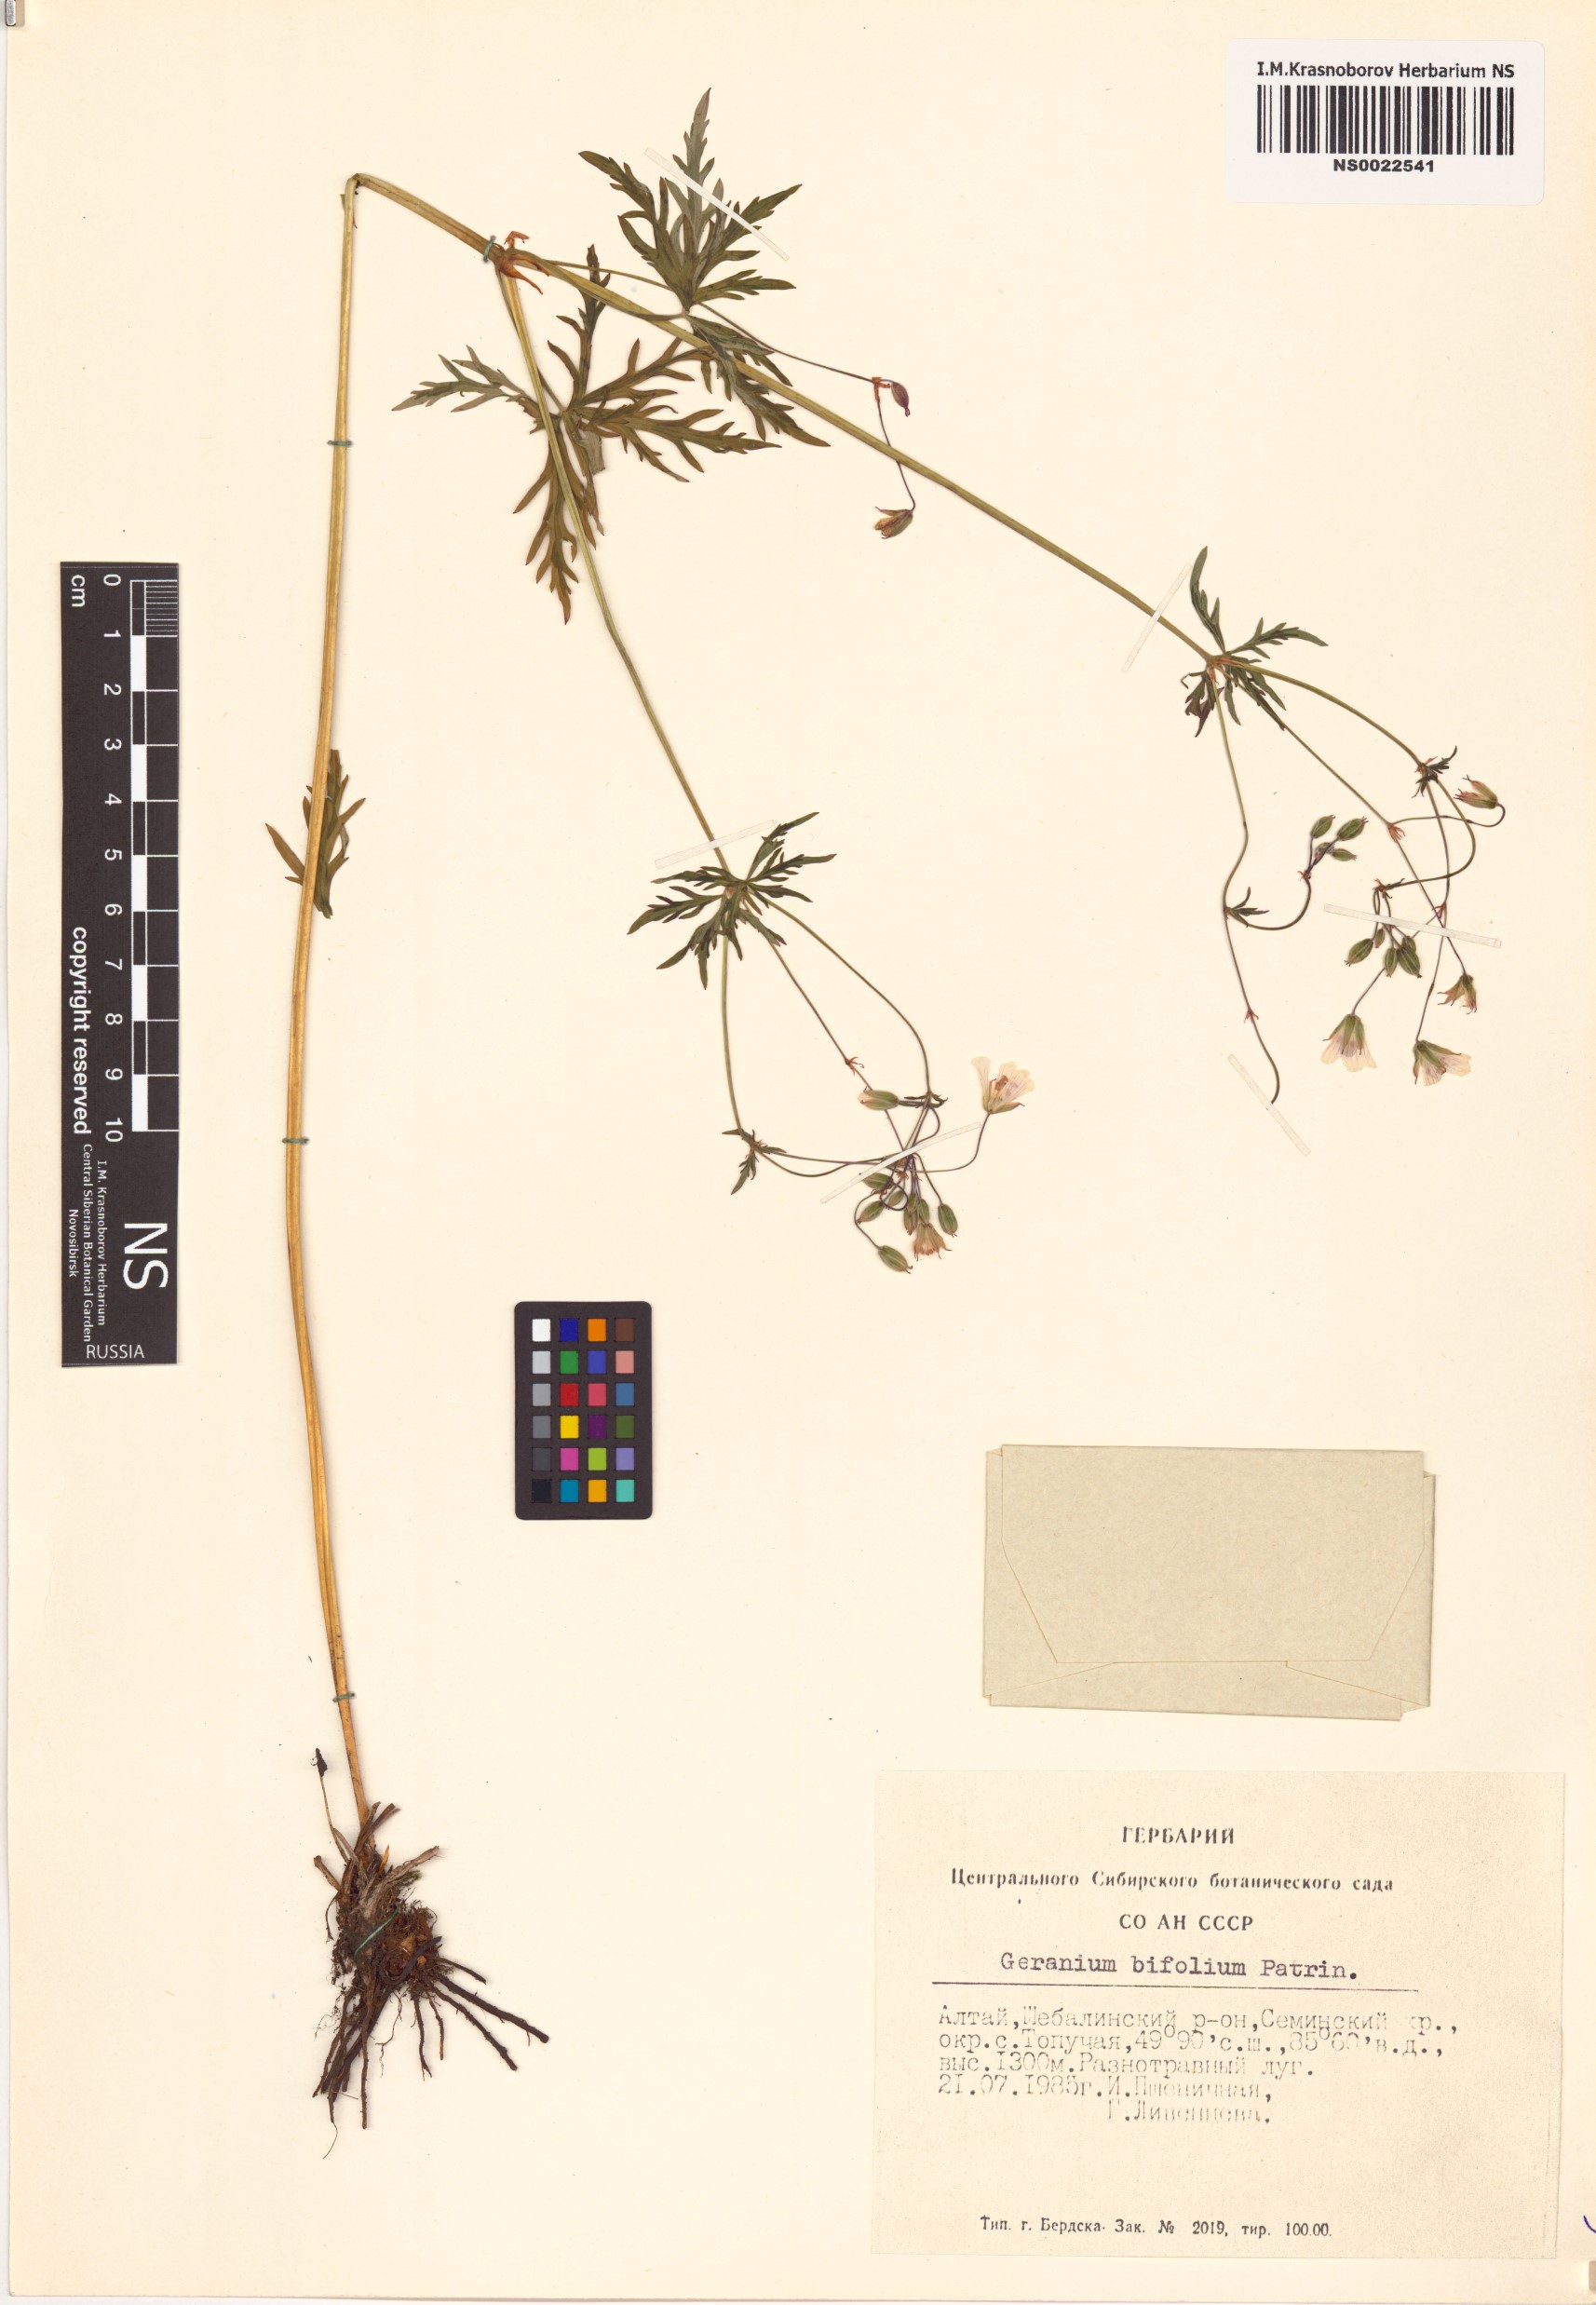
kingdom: Plantae
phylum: Tracheophyta
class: Magnoliopsida
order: Geraniales
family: Geraniaceae
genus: Geranium
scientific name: Geranium pseudosibiricum
